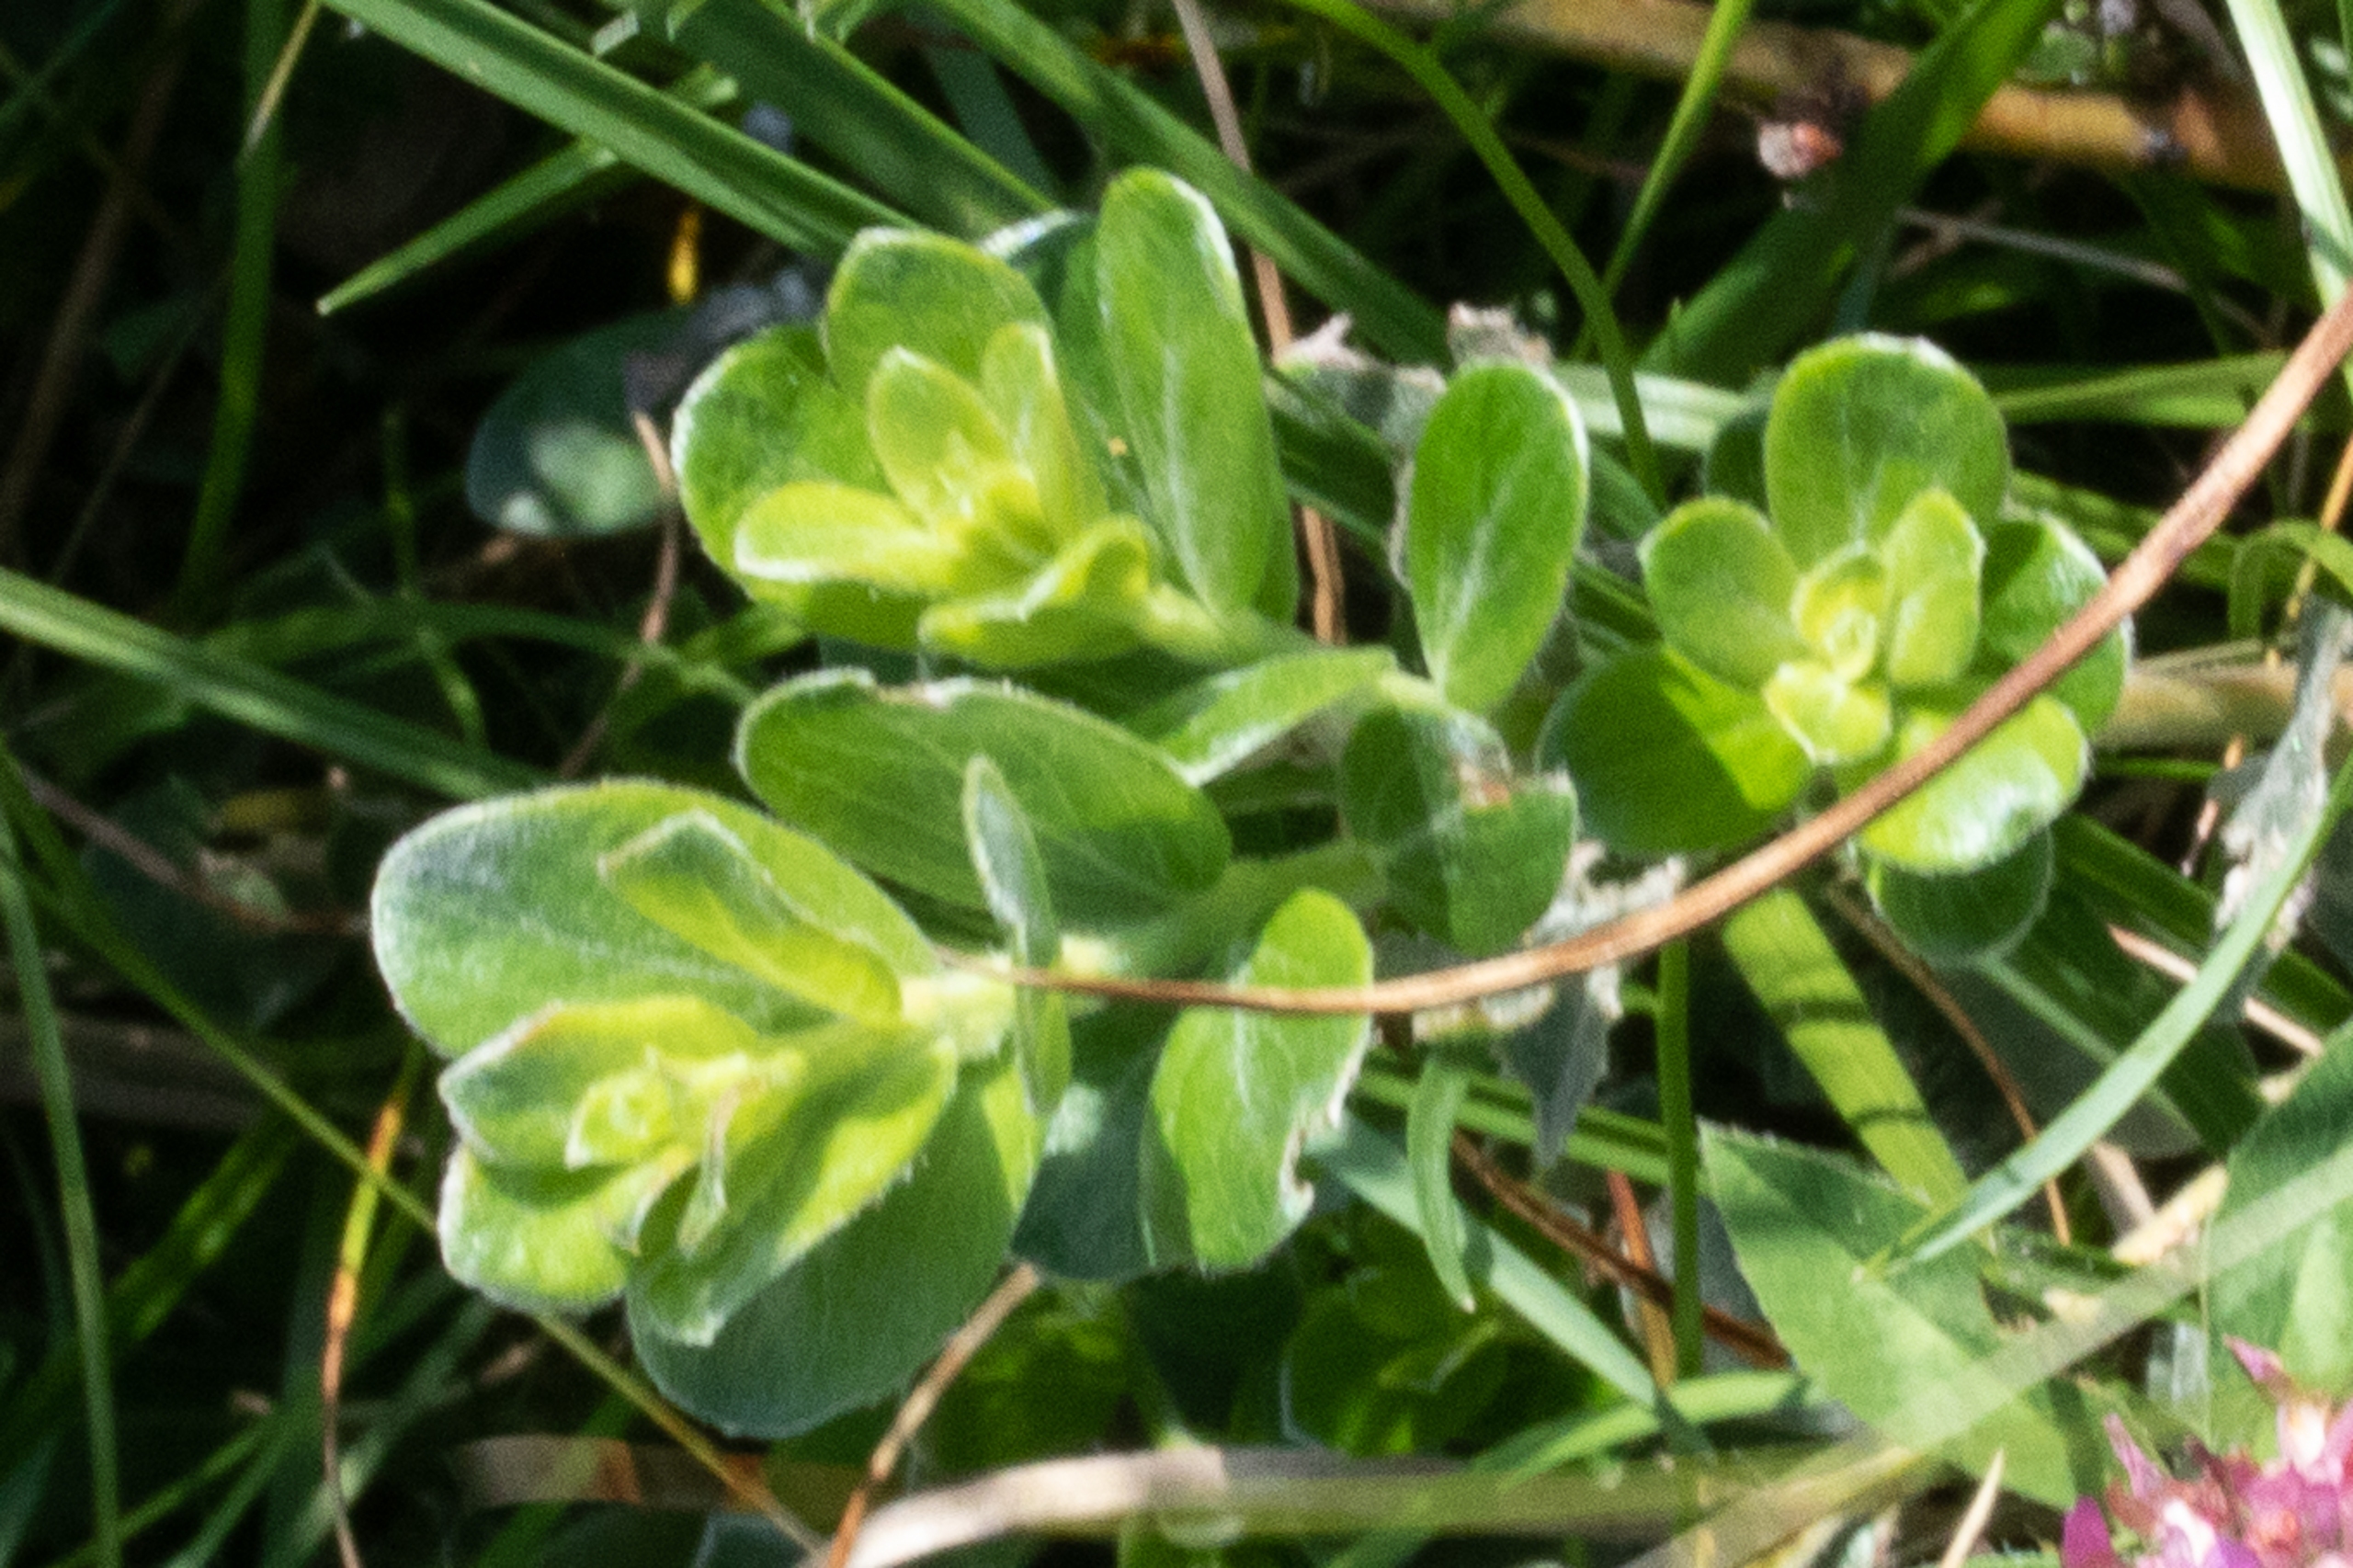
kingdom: Plantae
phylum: Tracheophyta
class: Magnoliopsida
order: Malpighiales
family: Salicaceae
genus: Salix
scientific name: Salix repens
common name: Krybende pil
